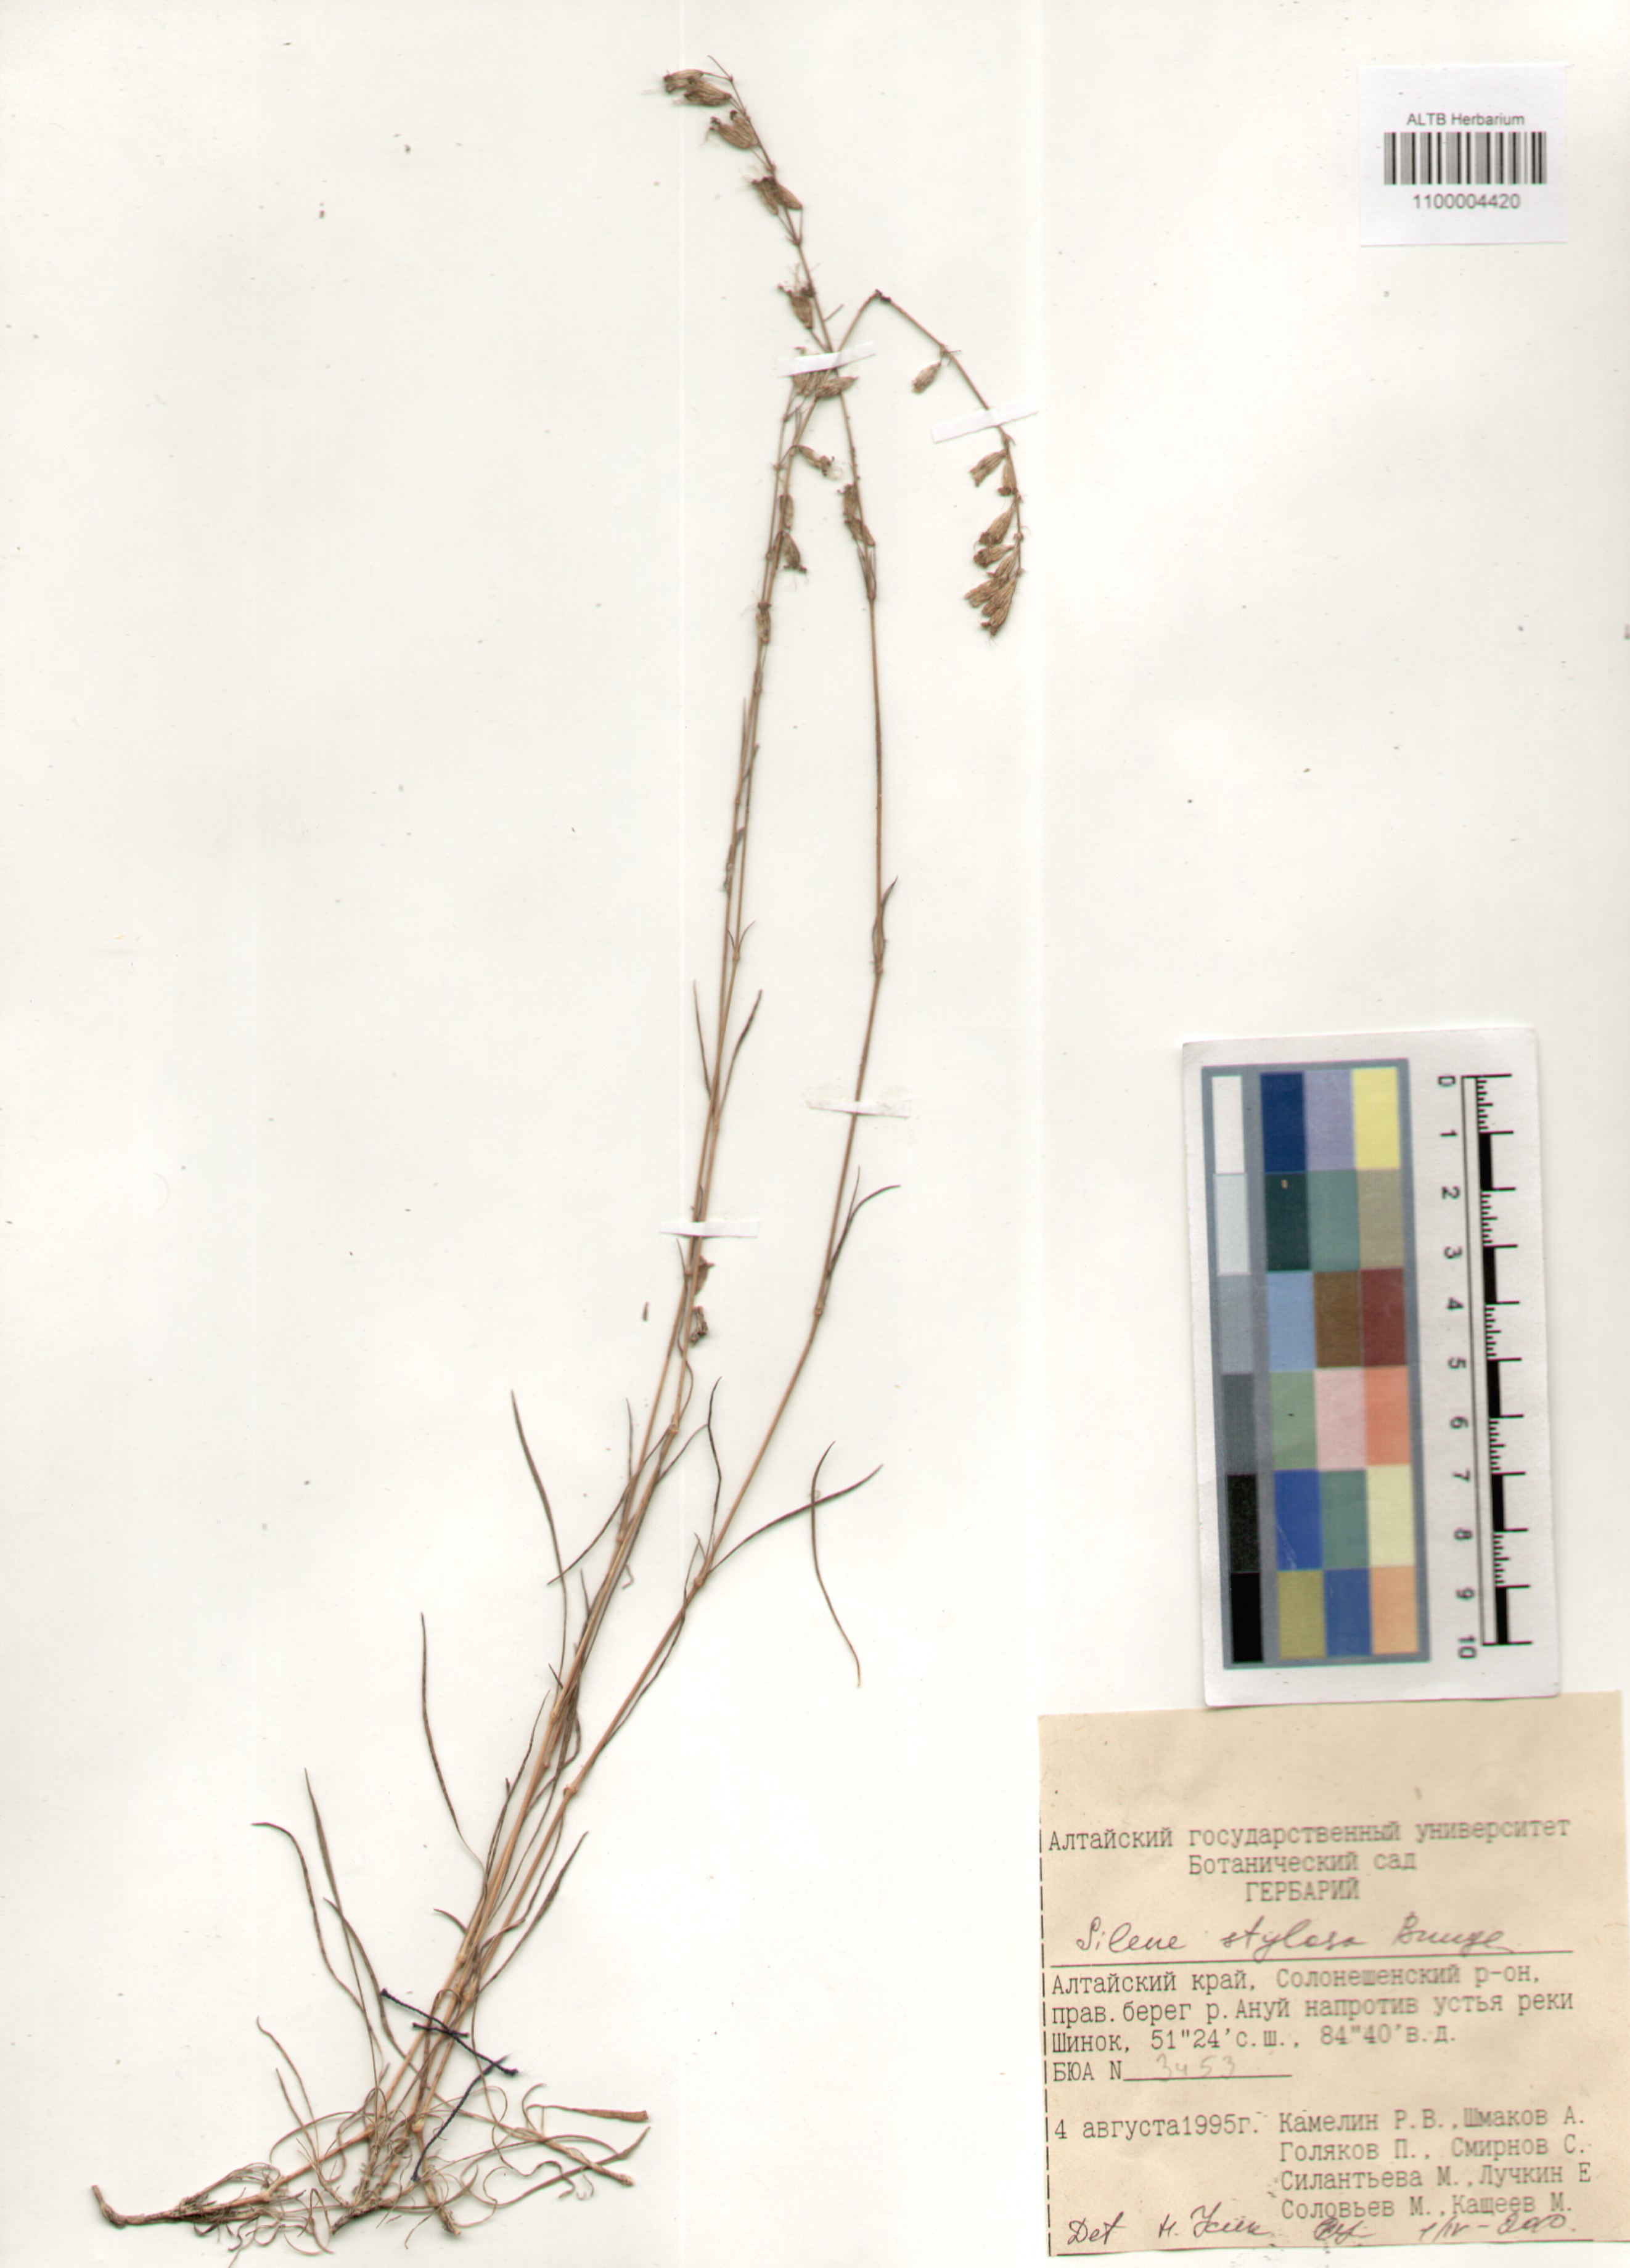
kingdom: Plantae
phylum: Tracheophyta
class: Magnoliopsida
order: Caryophyllales
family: Caryophyllaceae
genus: Silene
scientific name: Silene graminifolia
